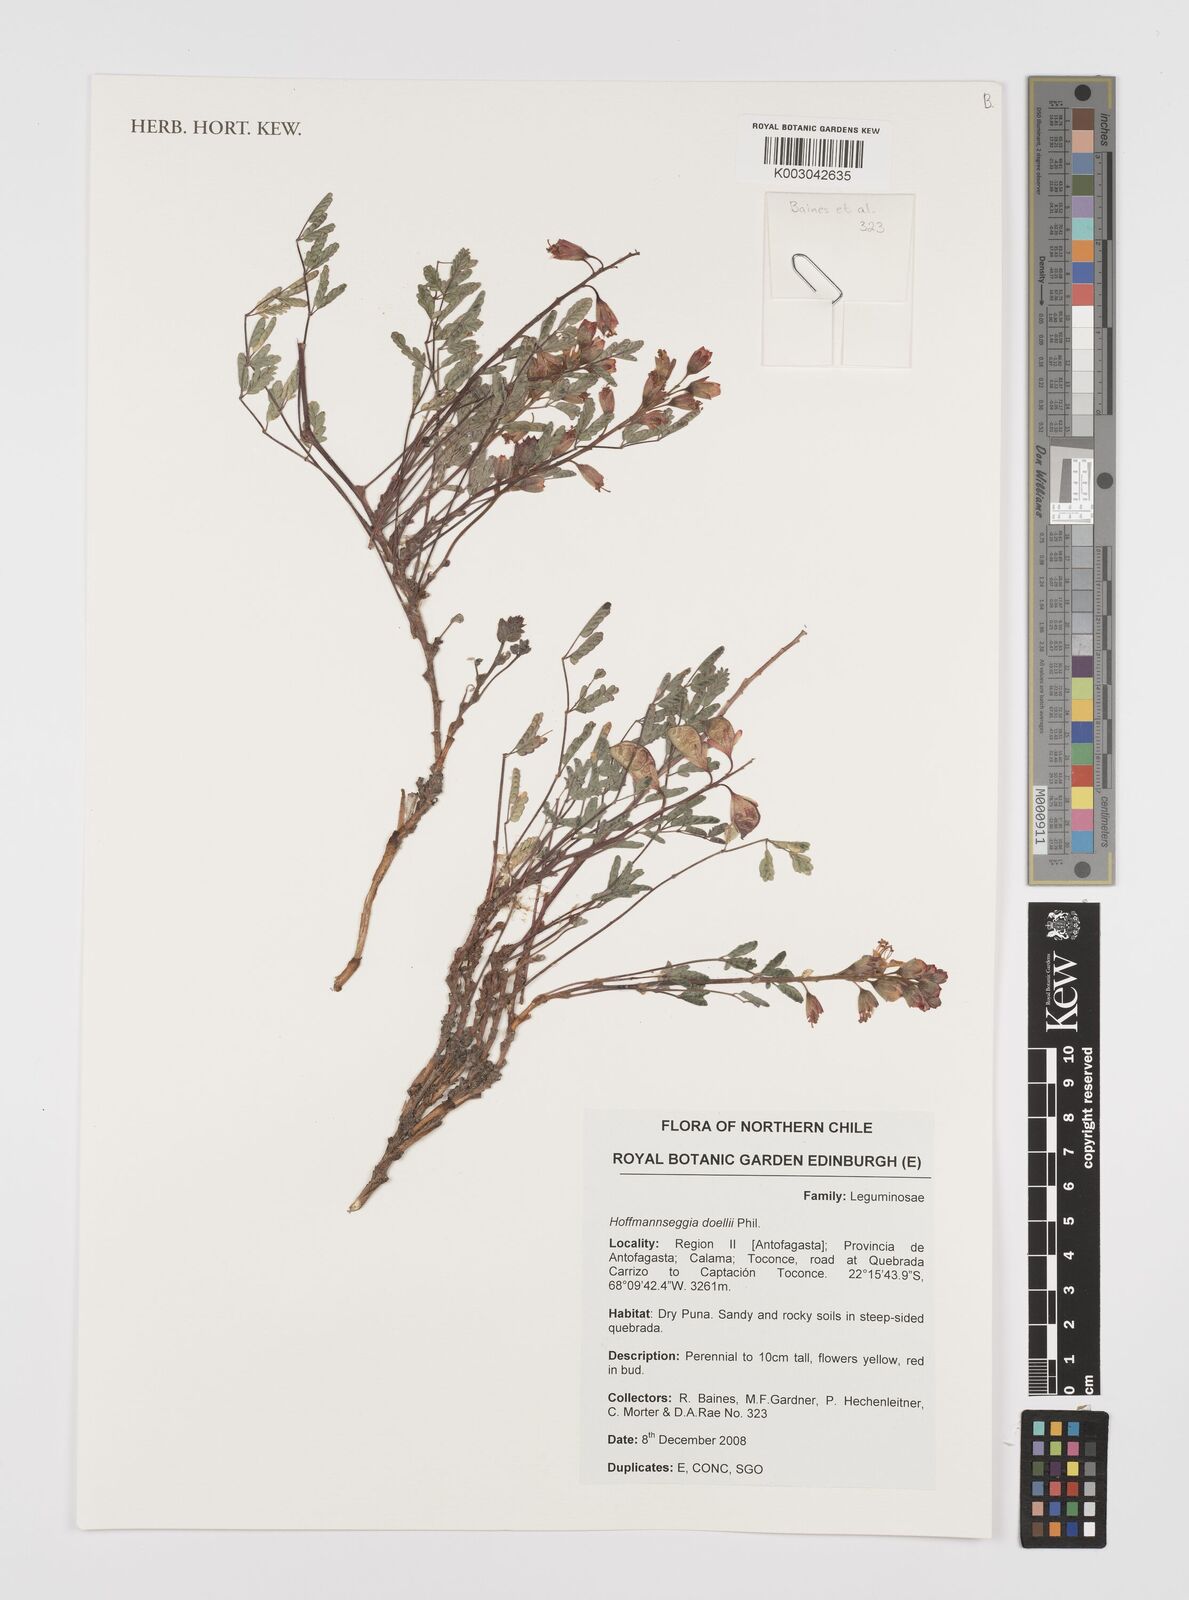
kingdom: Plantae
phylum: Tracheophyta
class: Magnoliopsida
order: Fabales
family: Fabaceae
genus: Hoffmannseggia
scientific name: Hoffmannseggia doellii
